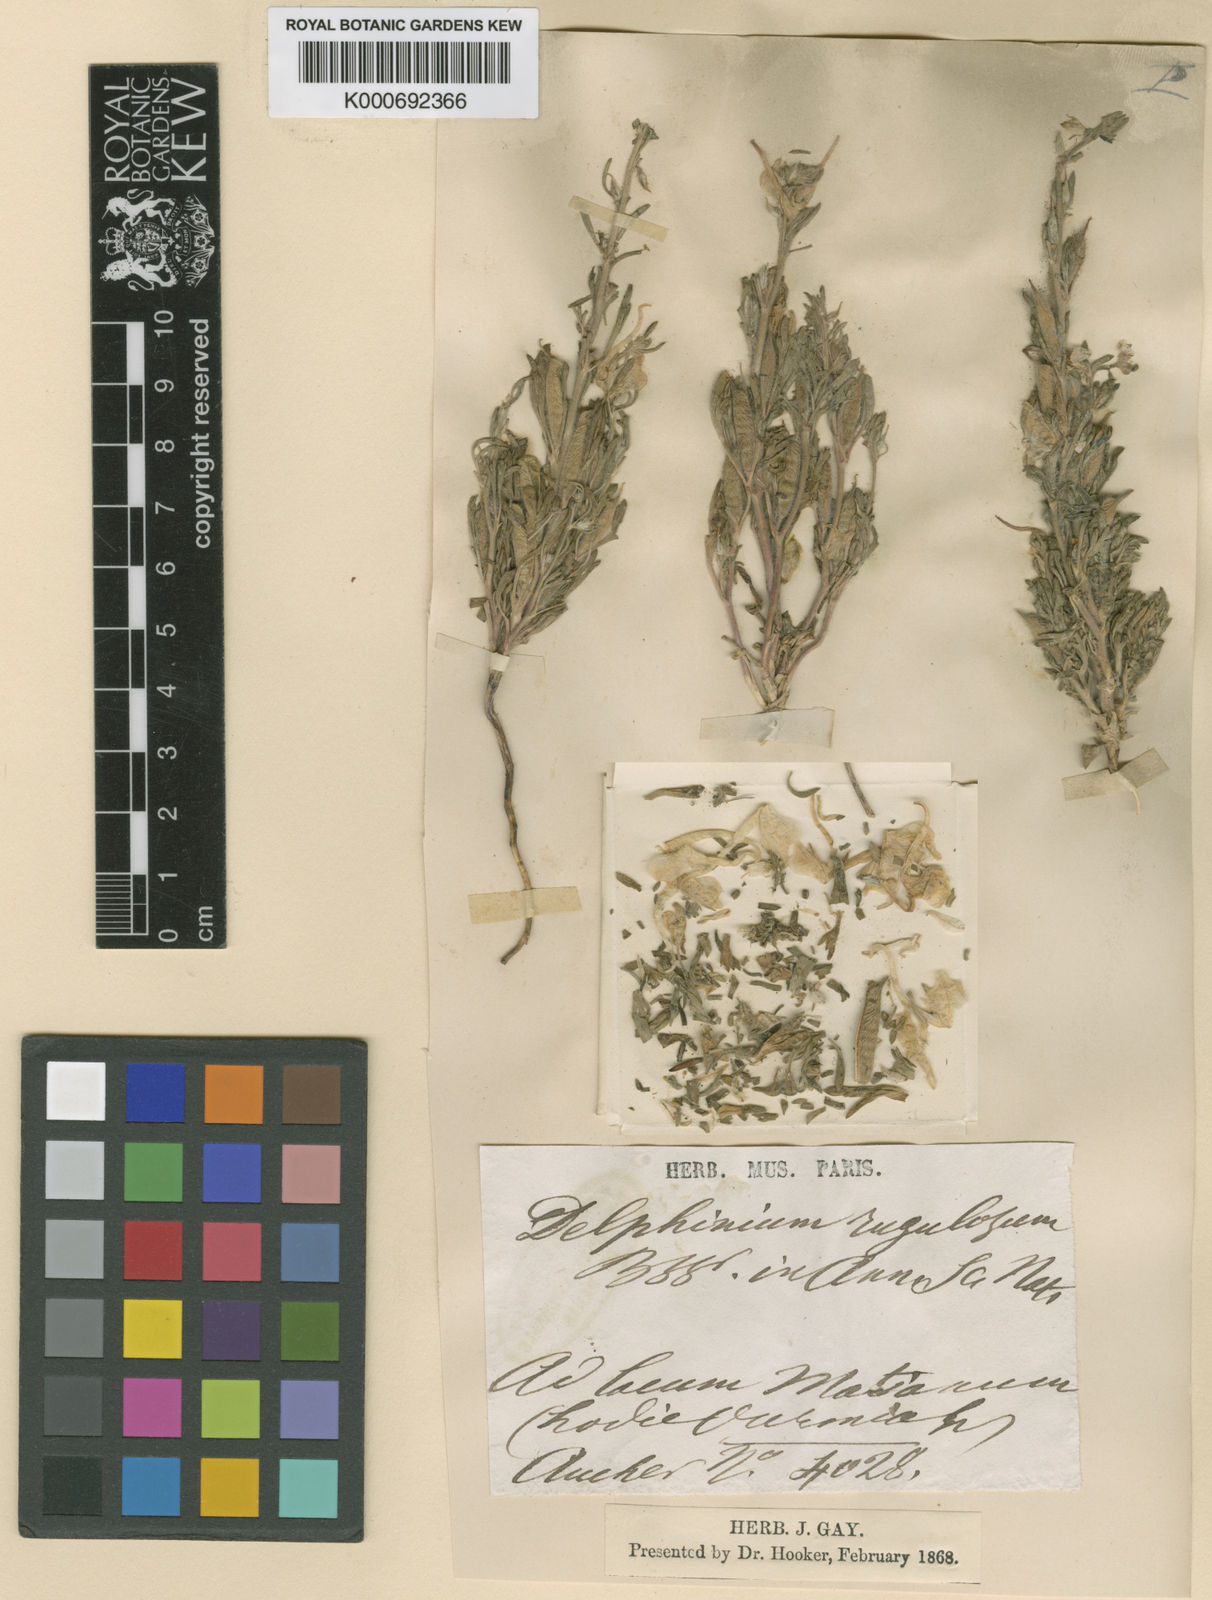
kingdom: Plantae
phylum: Tracheophyta
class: Magnoliopsida
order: Ranunculales
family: Ranunculaceae
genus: Delphinium
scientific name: Delphinium rugulosum
